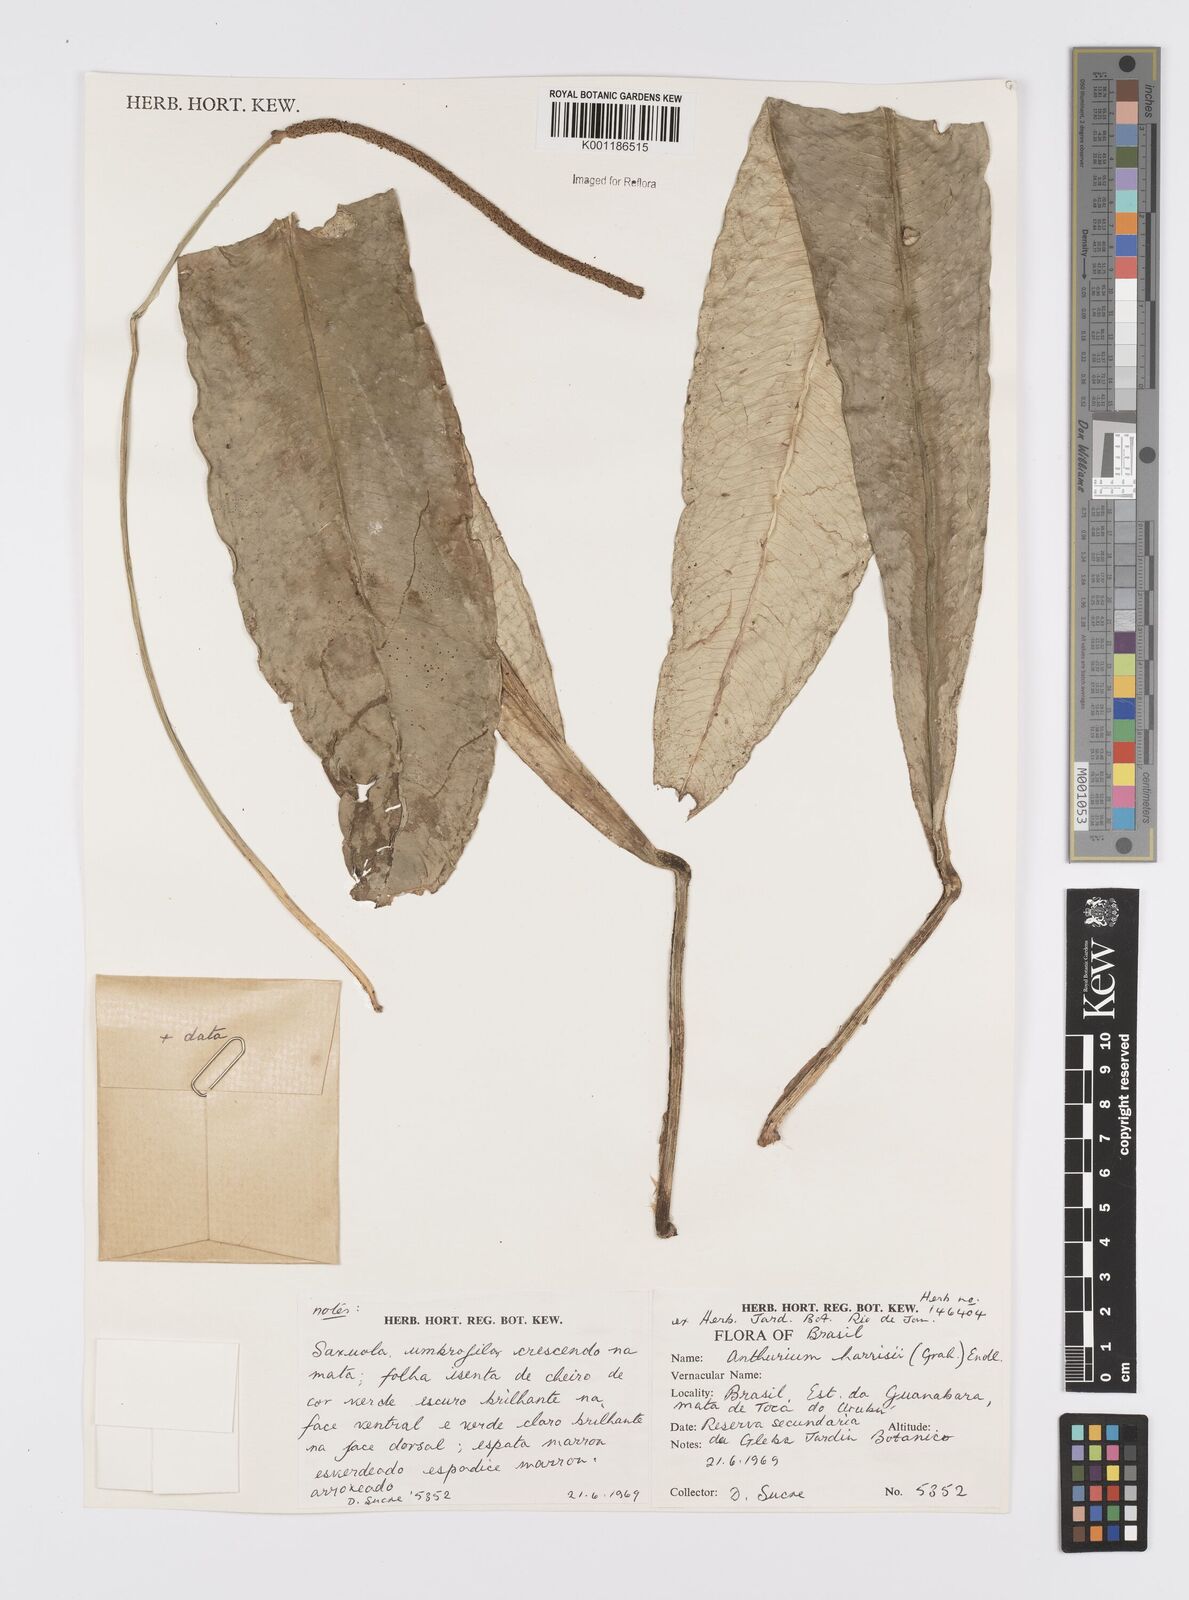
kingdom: Plantae
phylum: Tracheophyta
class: Liliopsida
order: Alismatales
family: Araceae
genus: Anthurium
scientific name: Anthurium harrisii
